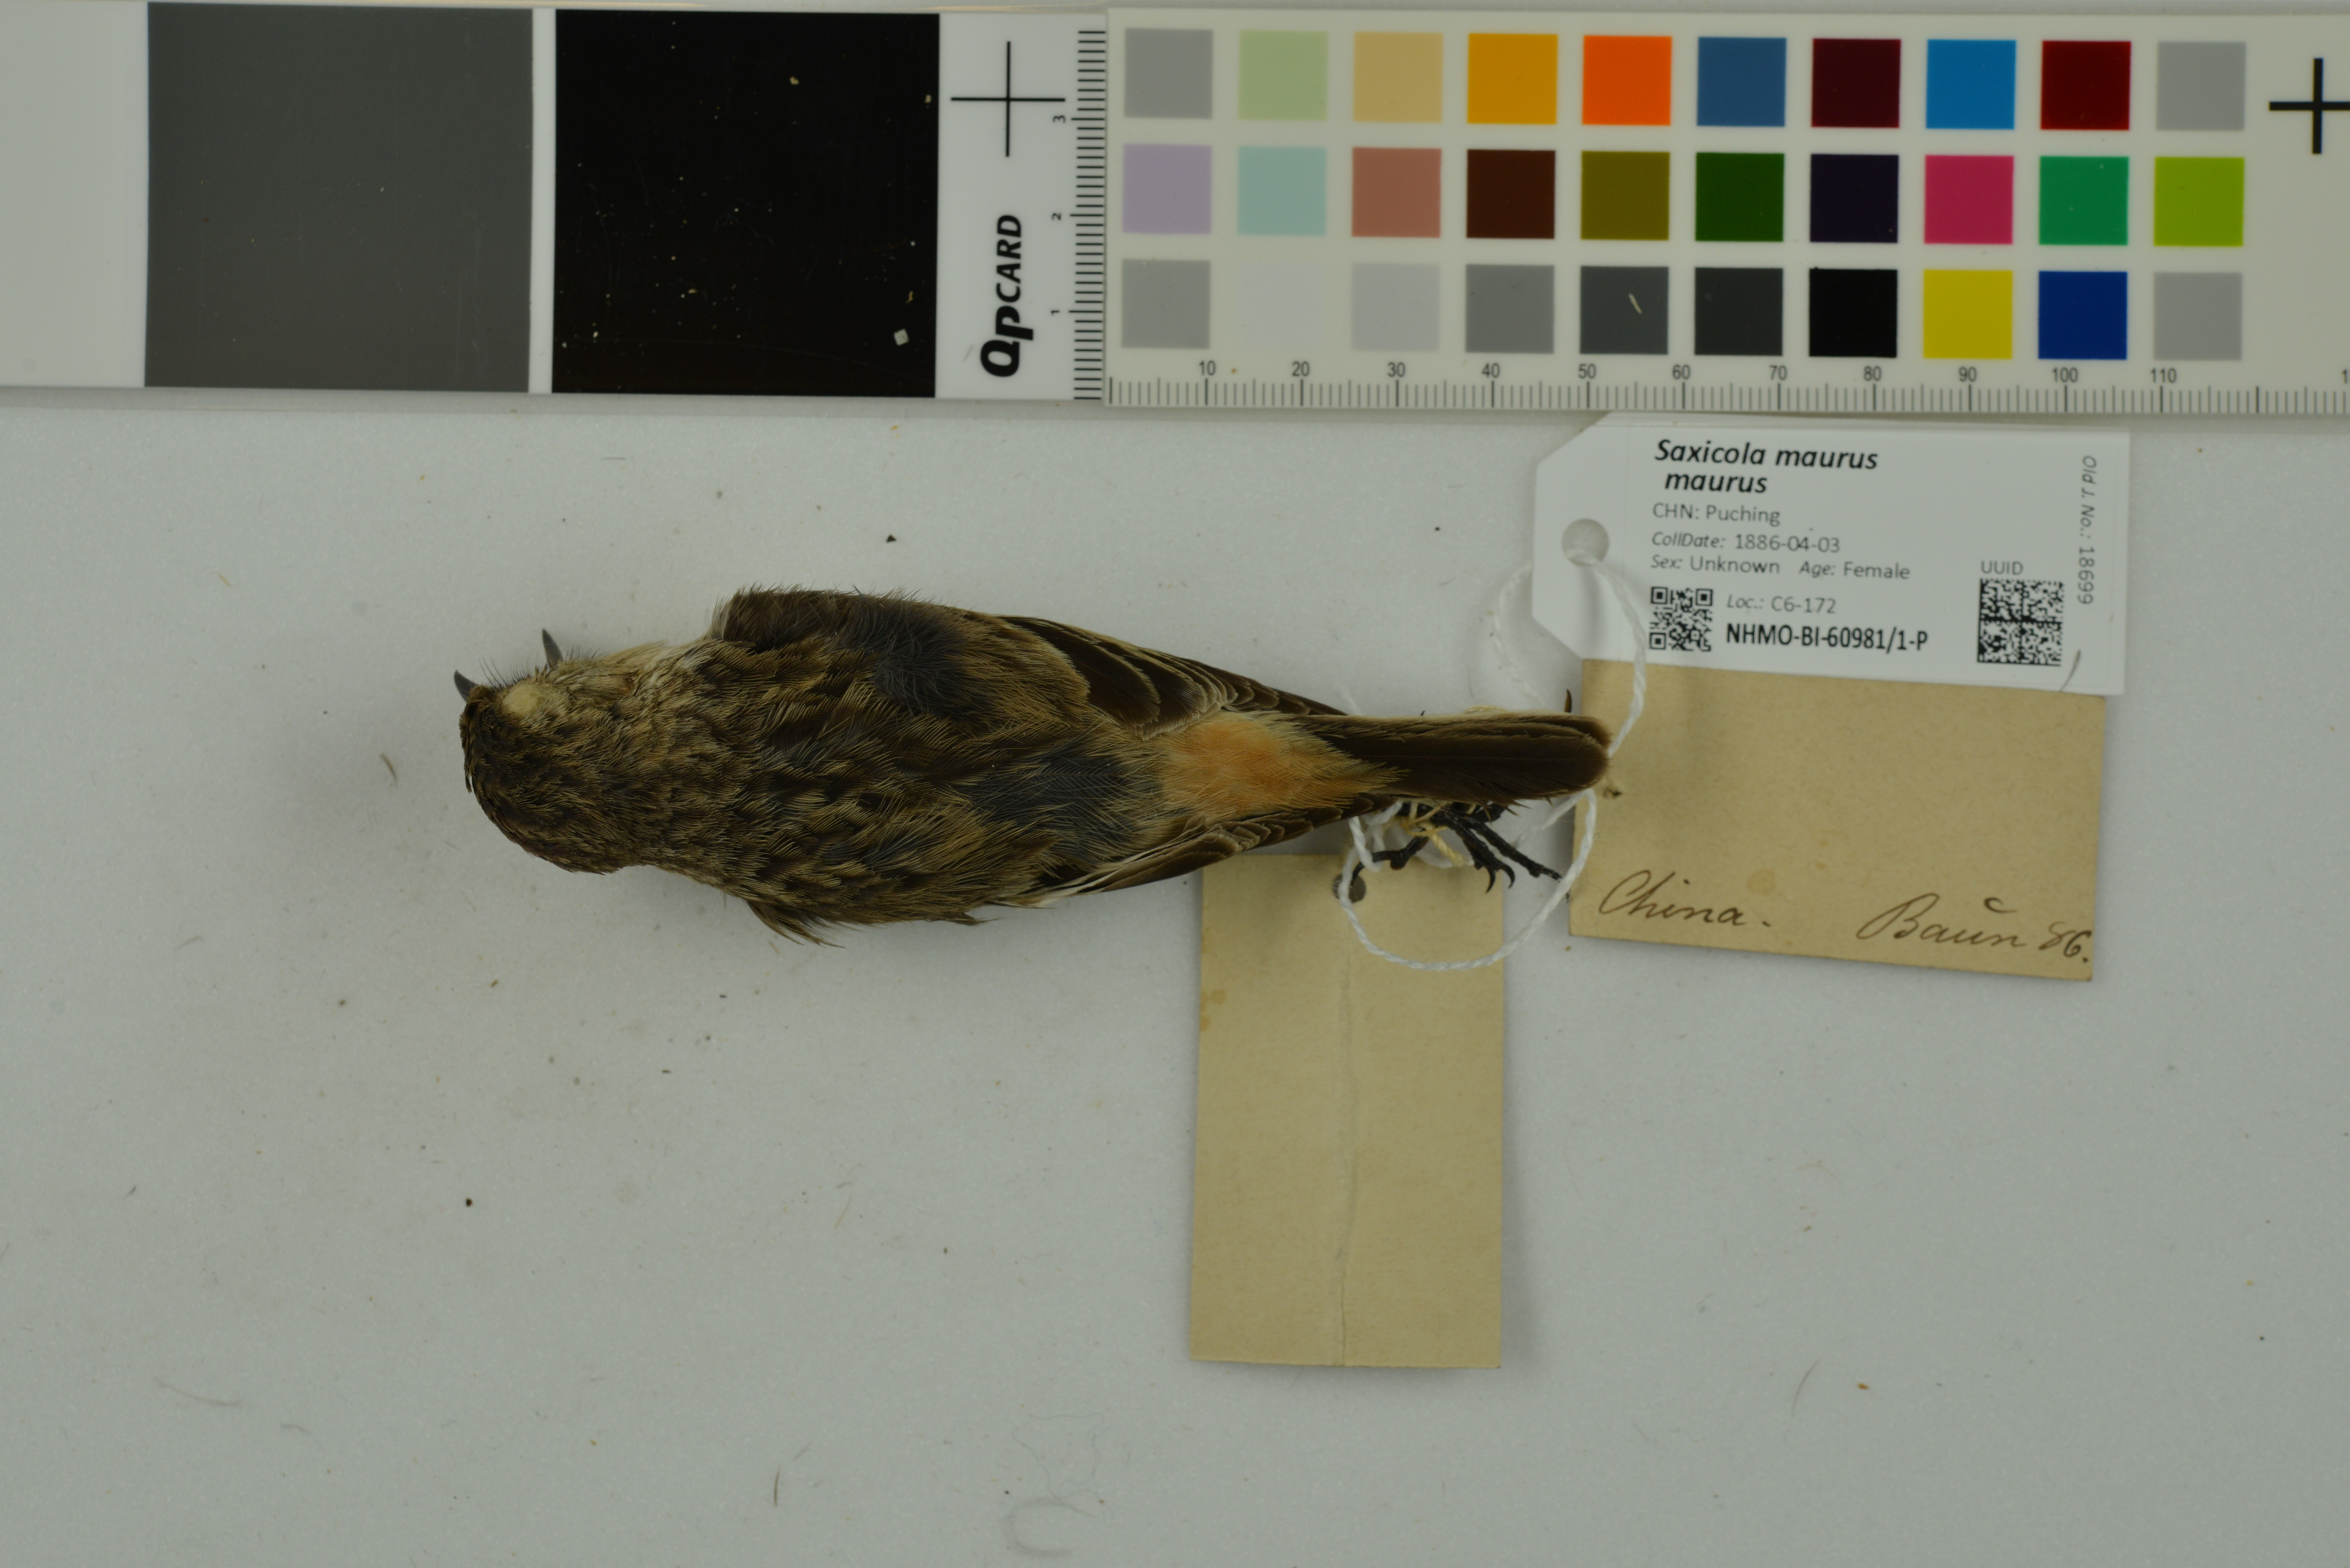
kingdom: Animalia
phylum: Chordata
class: Aves
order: Passeriformes
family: Muscicapidae
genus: Saxicola
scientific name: Saxicola maurus
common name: Siberian stonechat
